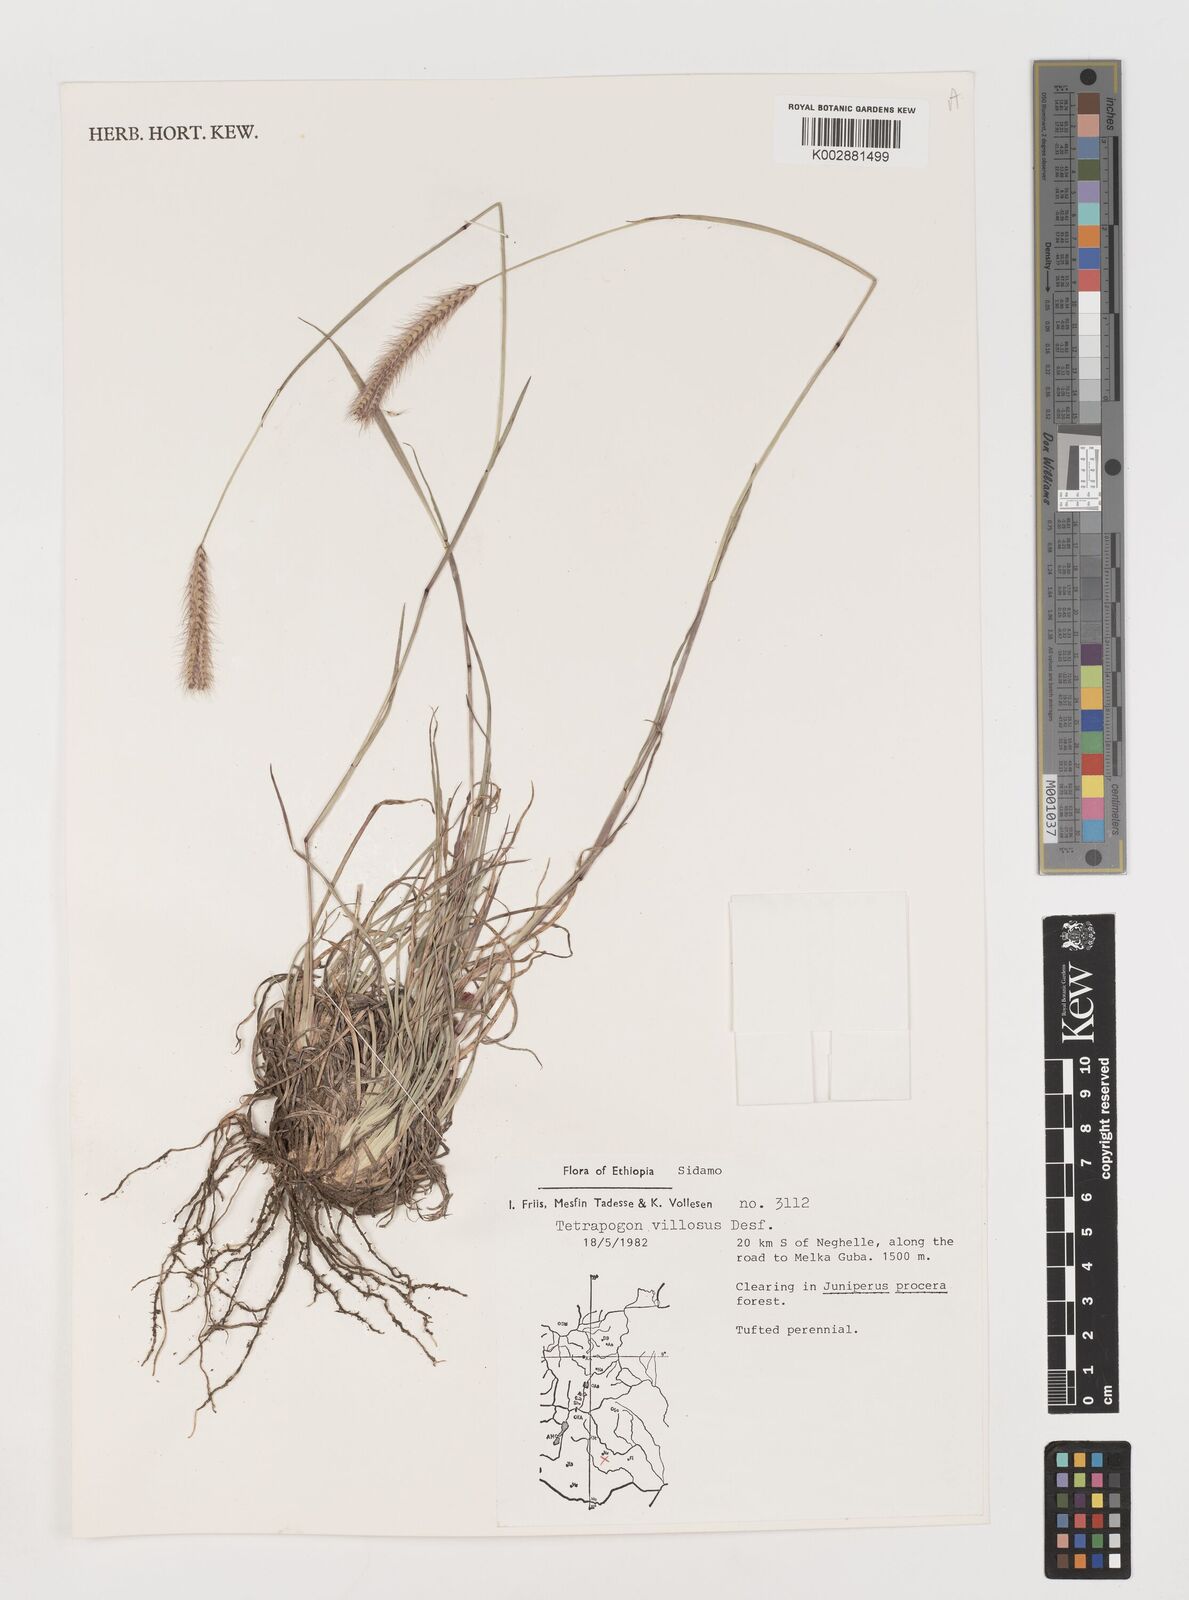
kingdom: Plantae
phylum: Tracheophyta
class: Liliopsida
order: Poales
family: Poaceae
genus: Tetrapogon
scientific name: Tetrapogon villosus
